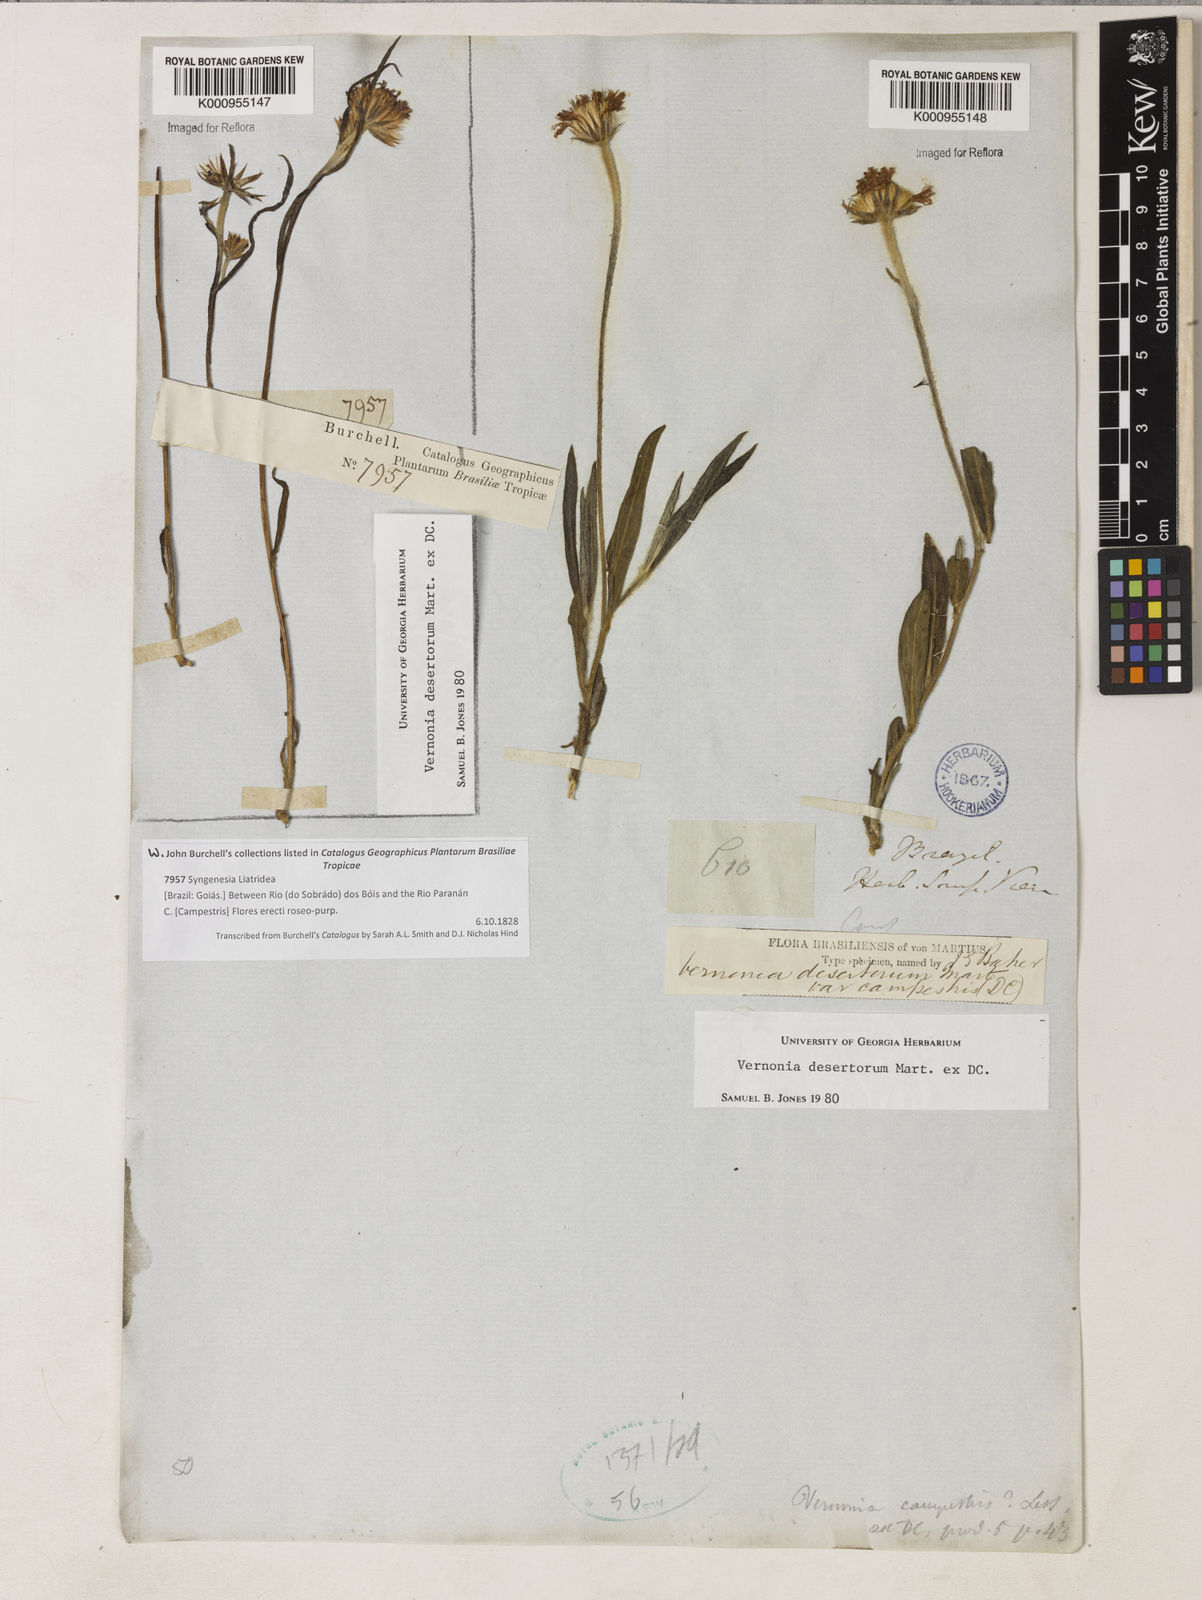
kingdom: Plantae
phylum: Tracheophyta
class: Magnoliopsida
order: Asterales
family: Asteraceae
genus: Chrysolaena
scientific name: Chrysolaena desertorum
